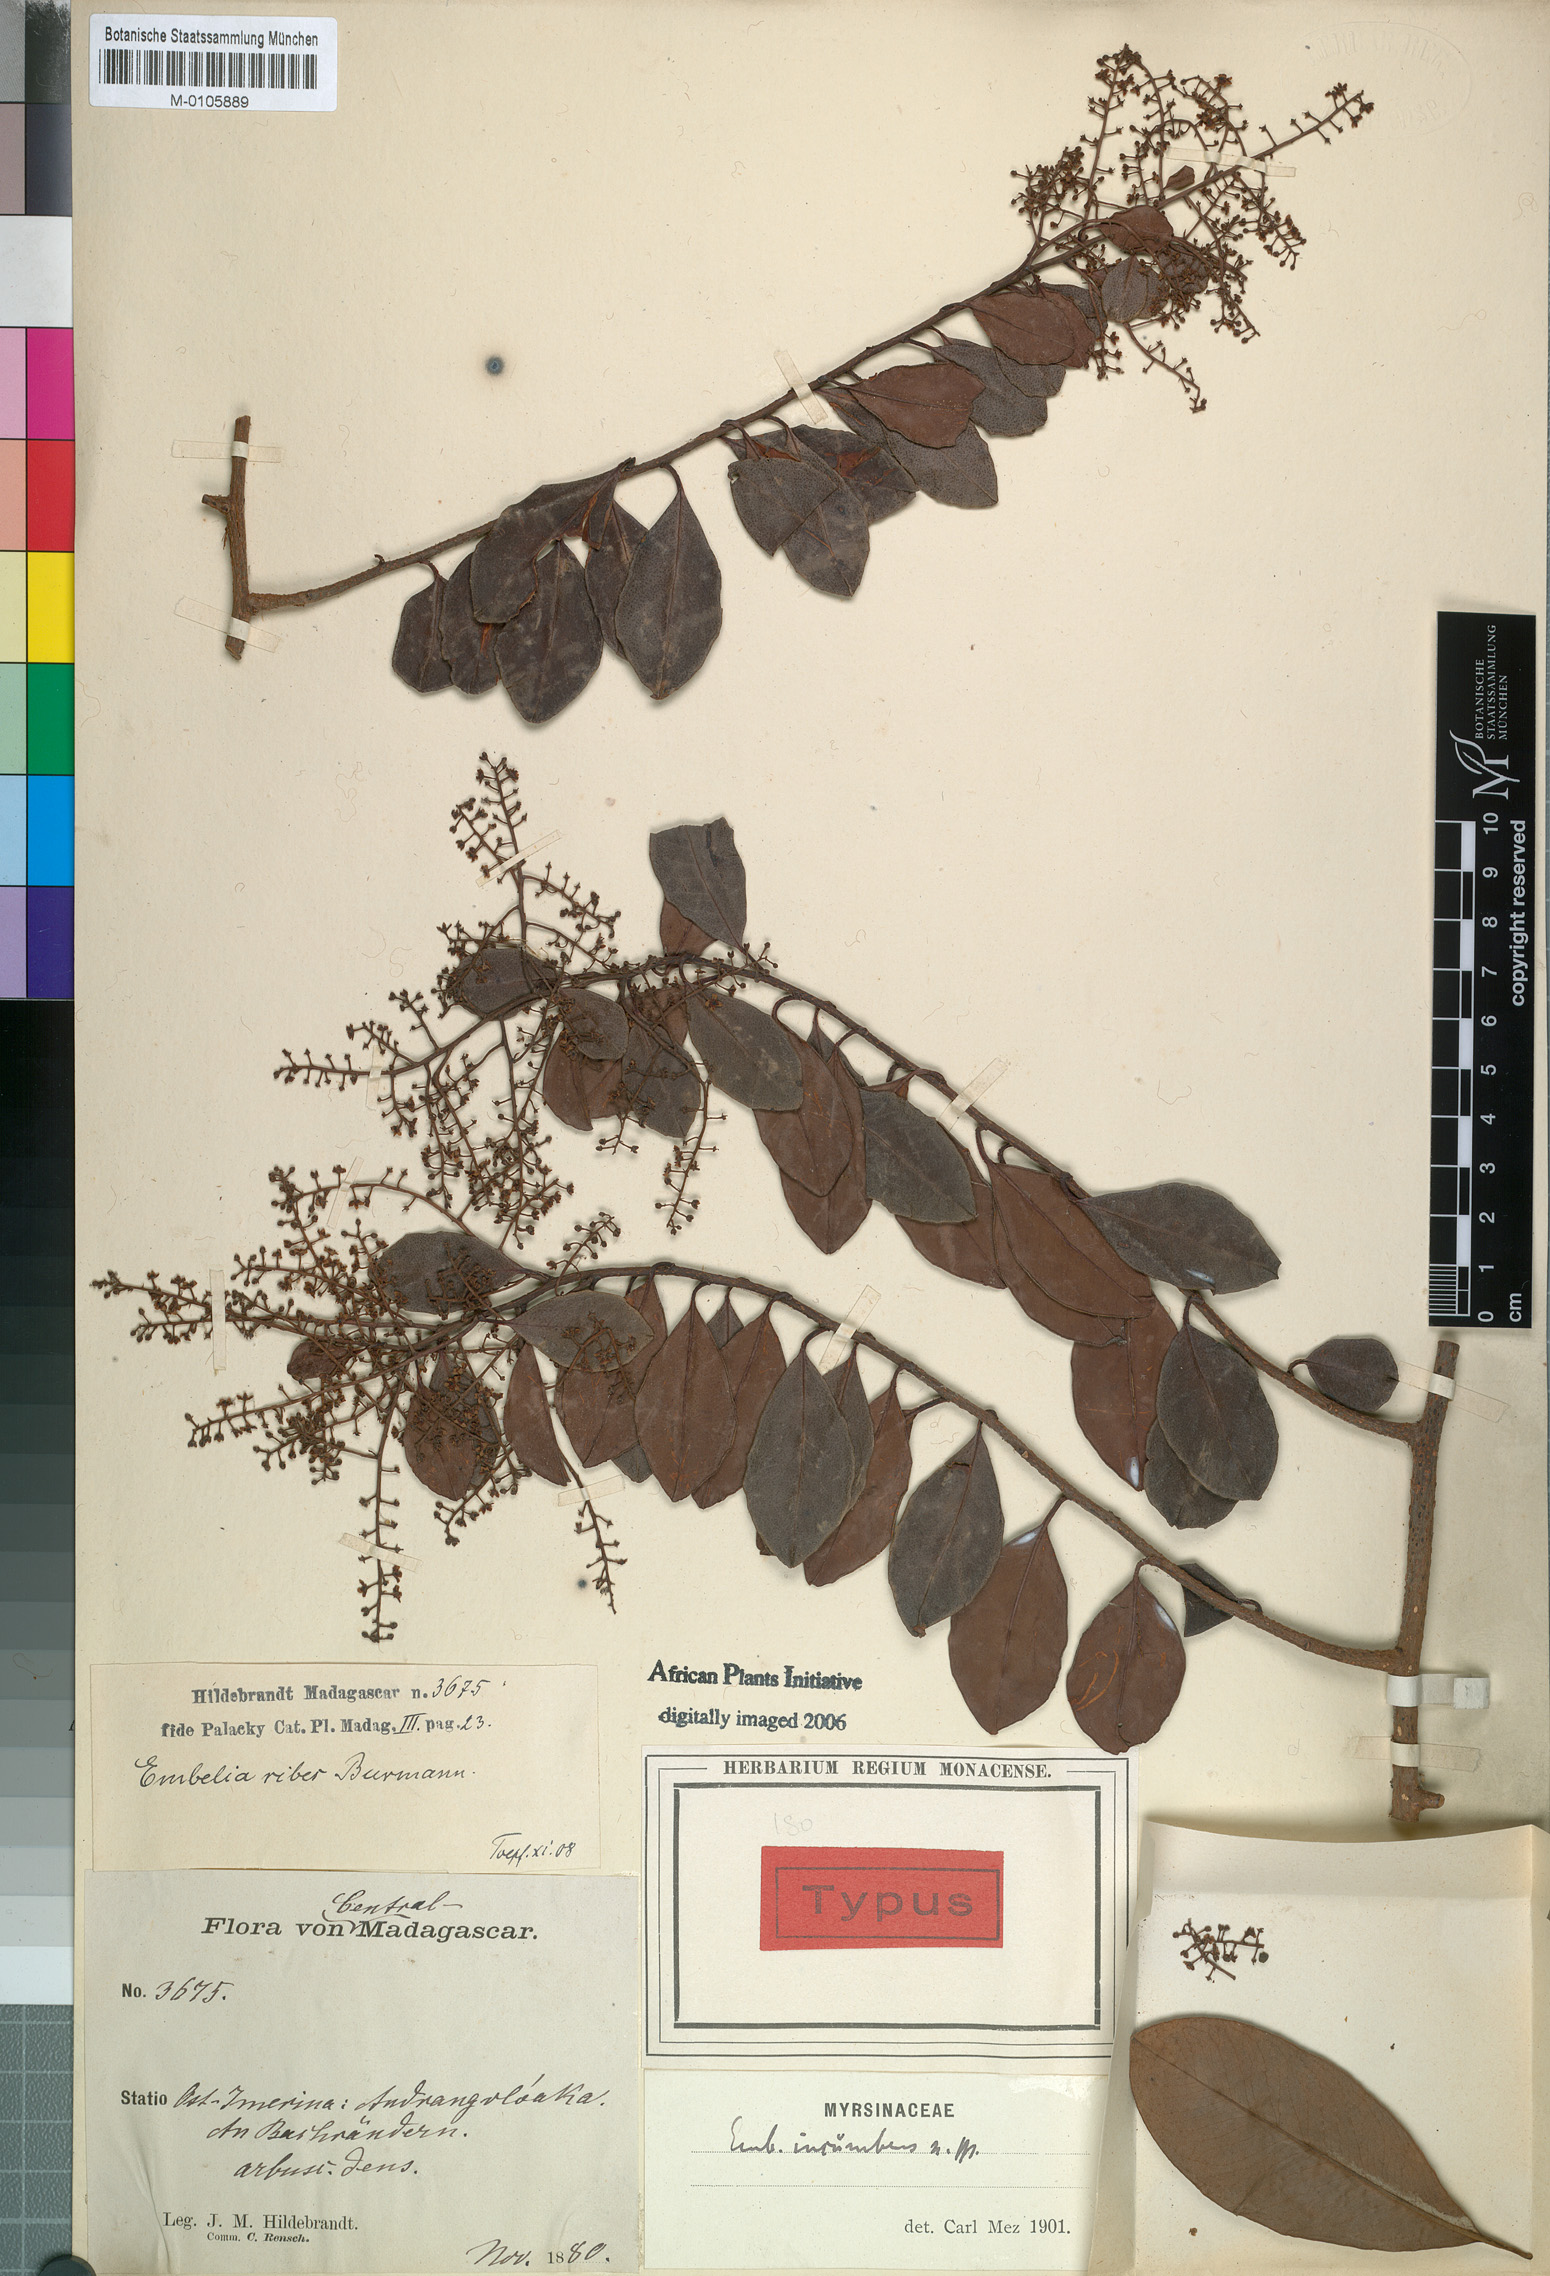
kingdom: Plantae
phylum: Tracheophyta
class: Magnoliopsida
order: Ericales
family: Primulaceae
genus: Embelia
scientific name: Embelia incumbens
